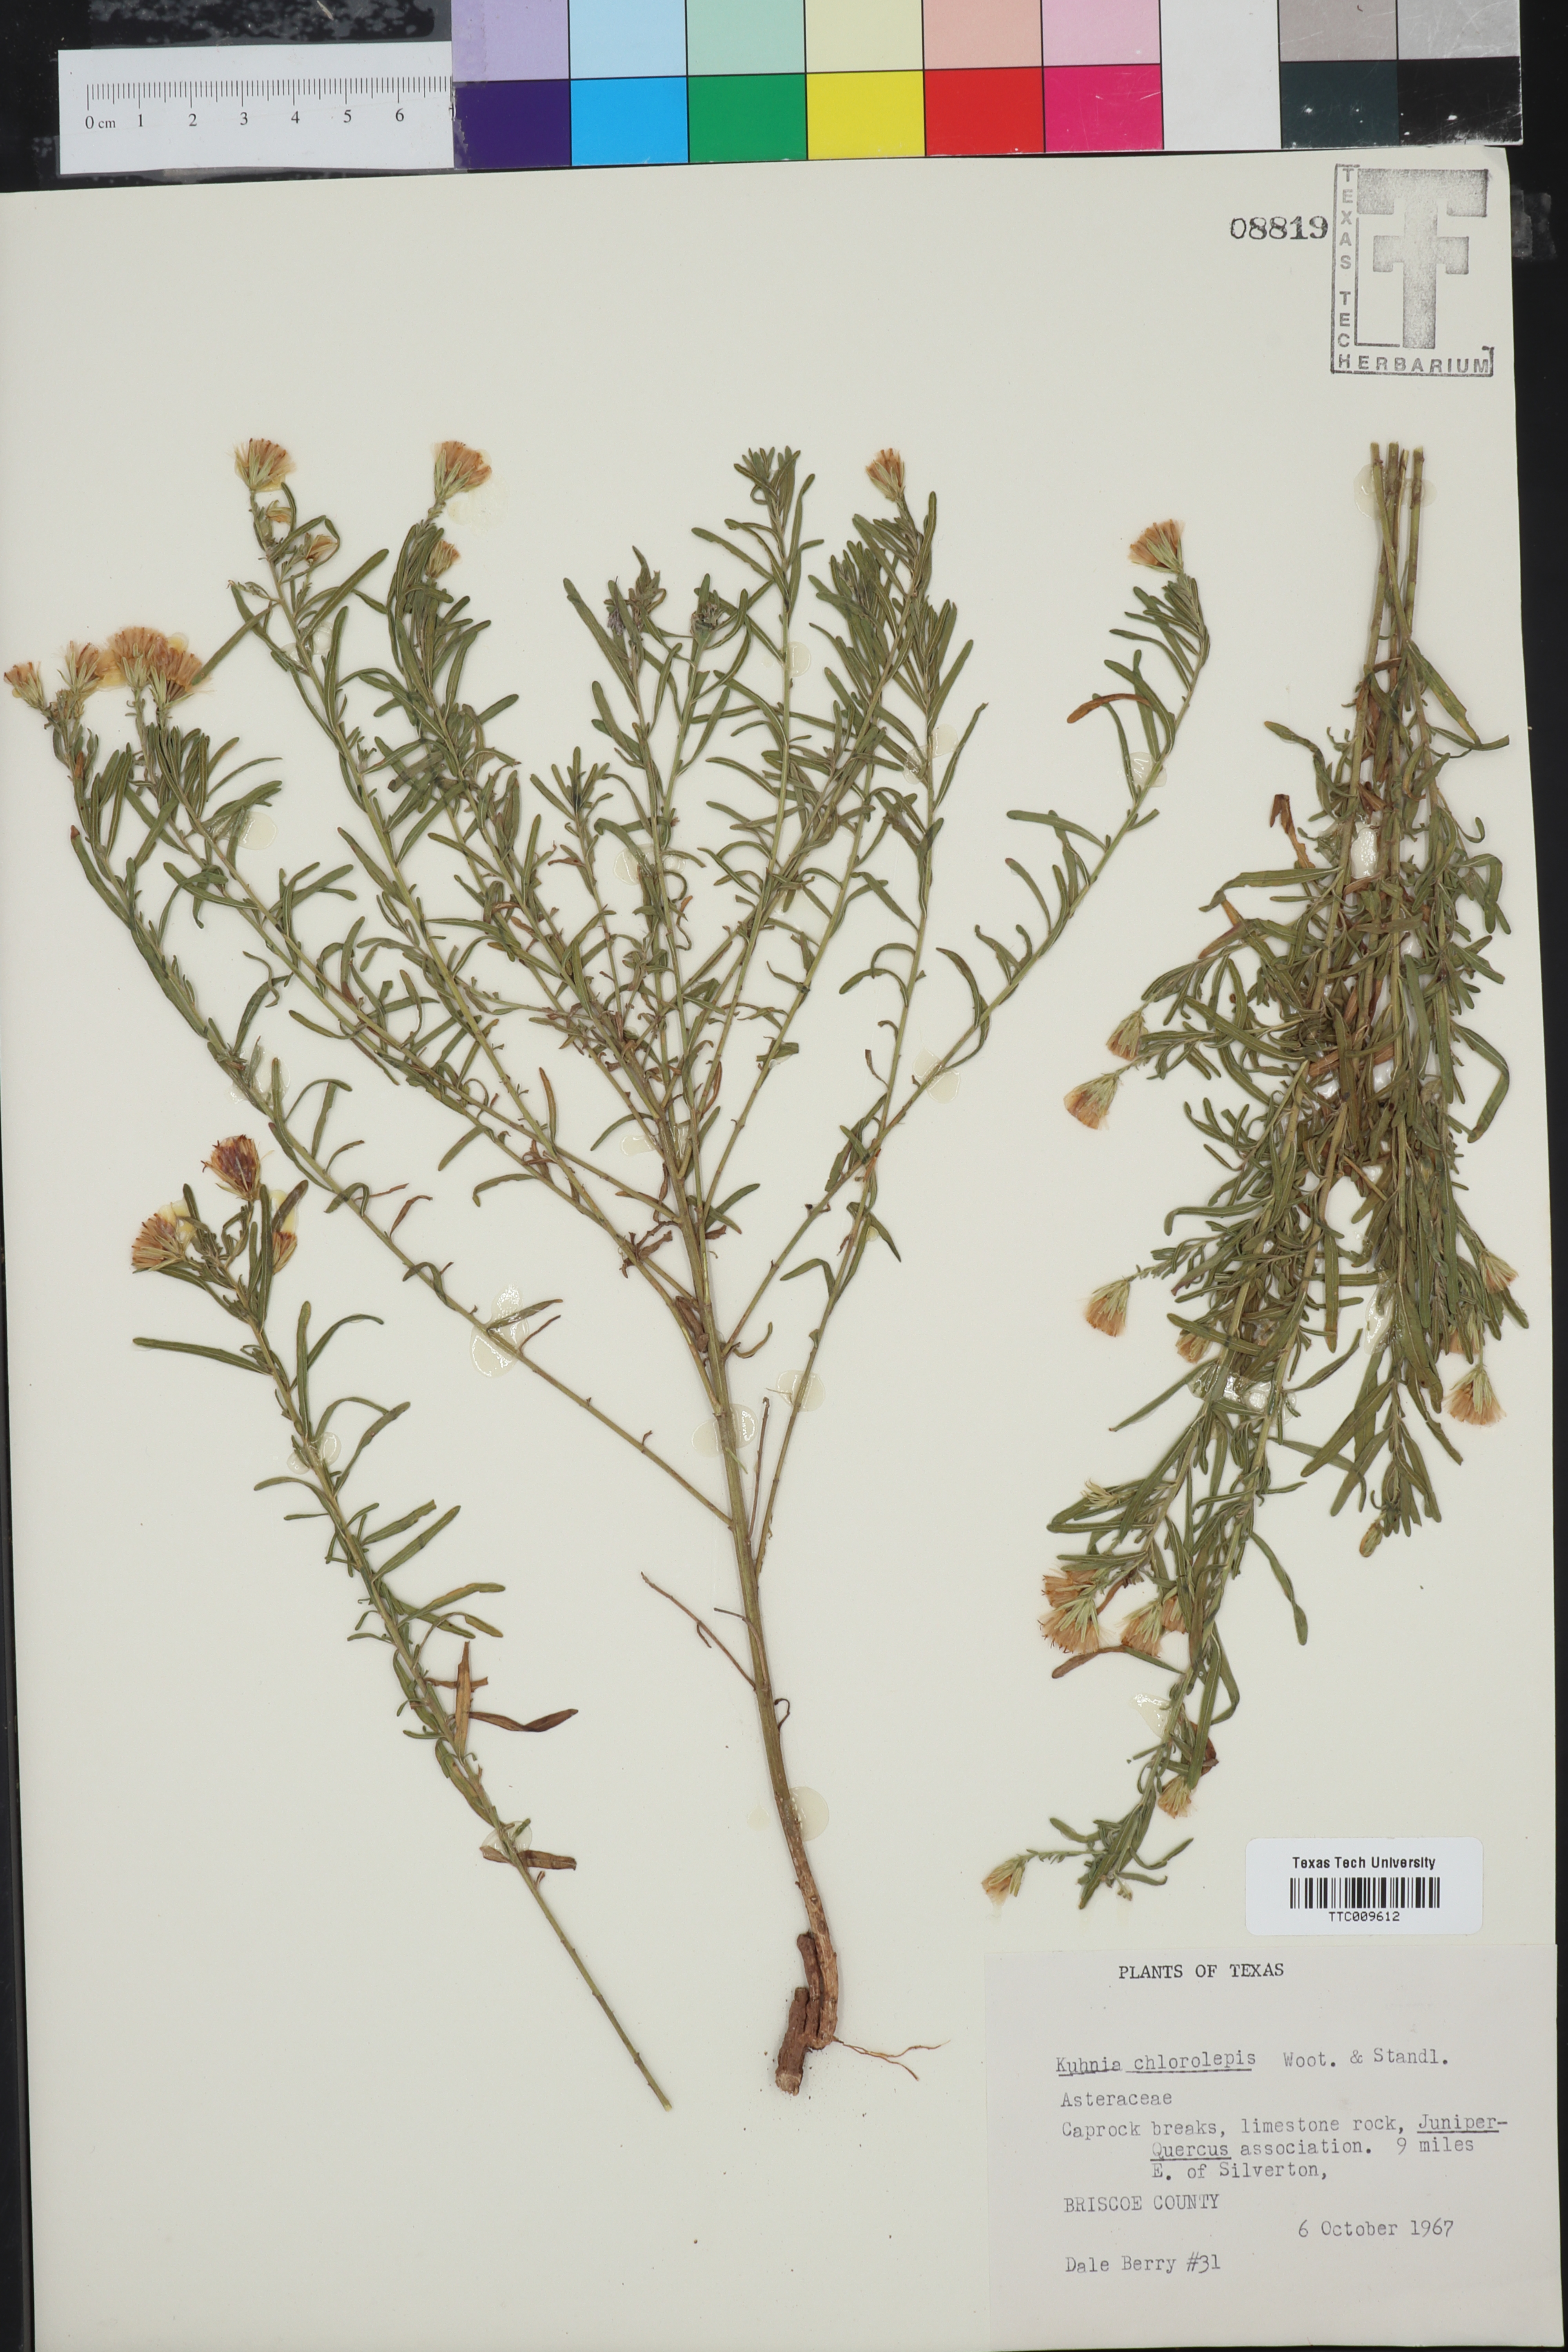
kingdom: Plantae
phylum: Tracheophyta
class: Magnoliopsida
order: Asterales
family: Asteraceae
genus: Brickellia
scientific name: Brickellia leptophylla
